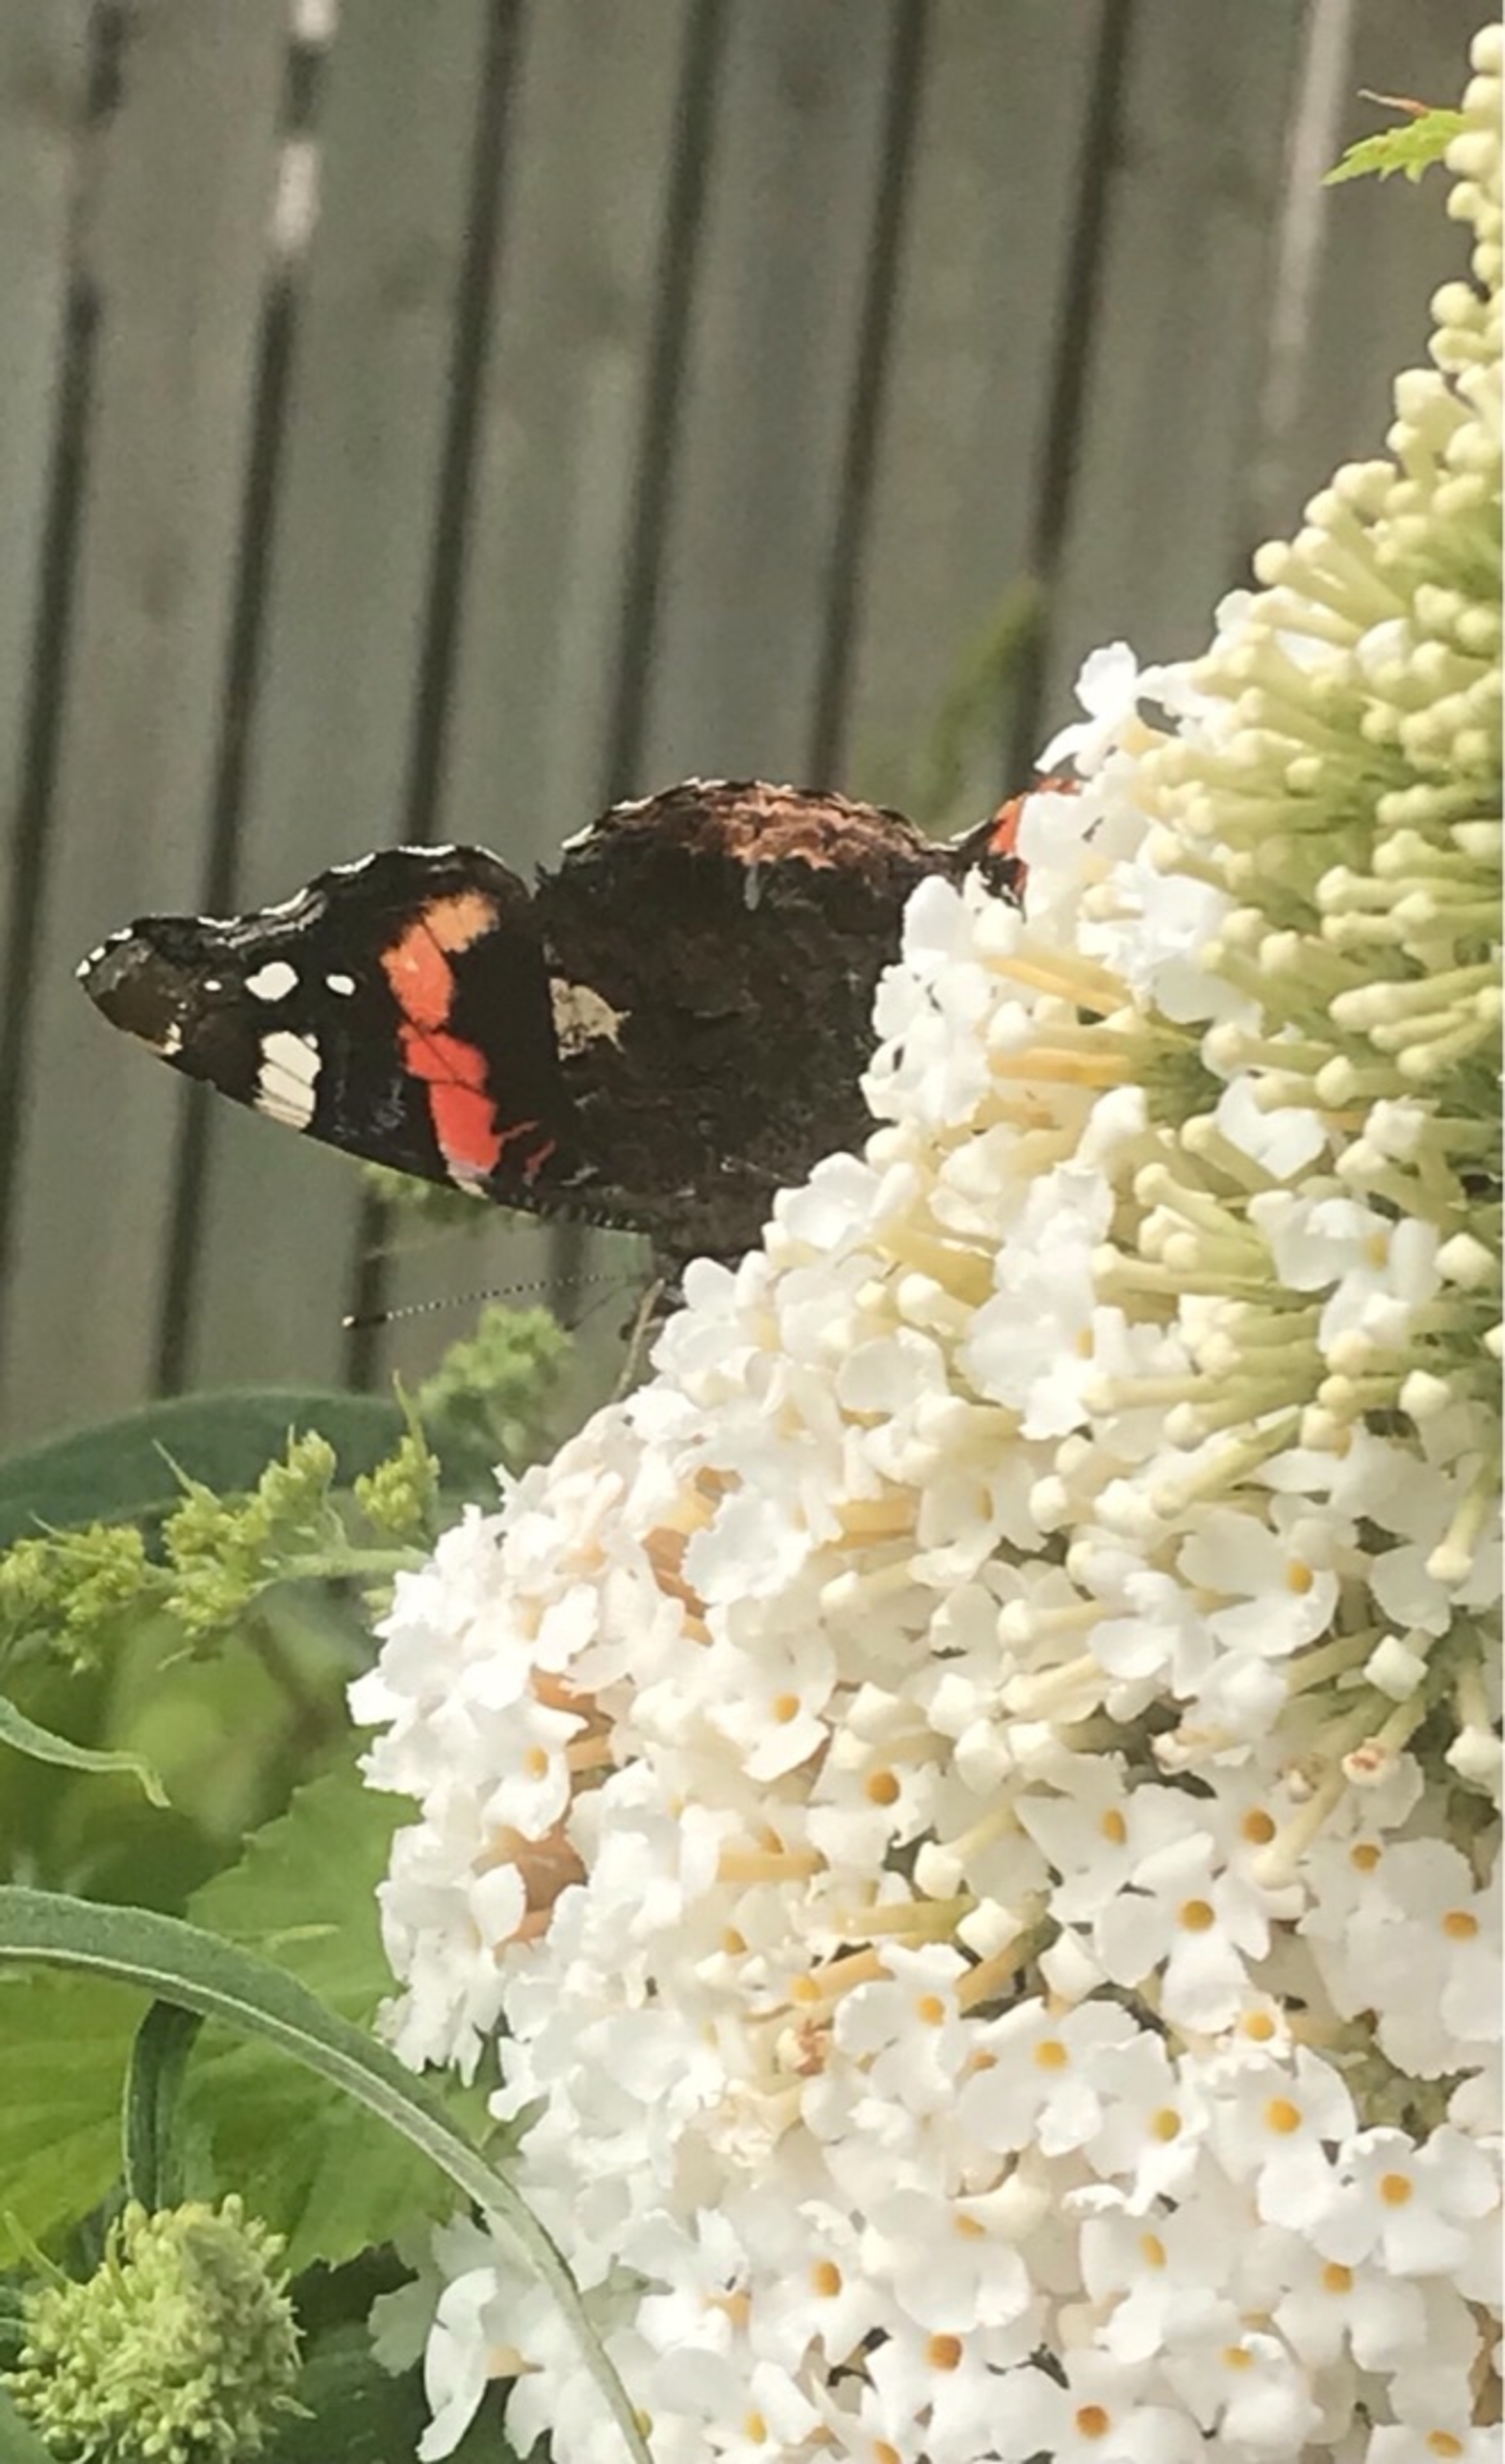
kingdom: Animalia
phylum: Arthropoda
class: Insecta
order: Lepidoptera
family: Nymphalidae
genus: Vanessa
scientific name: Vanessa atalanta
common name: Admiral
